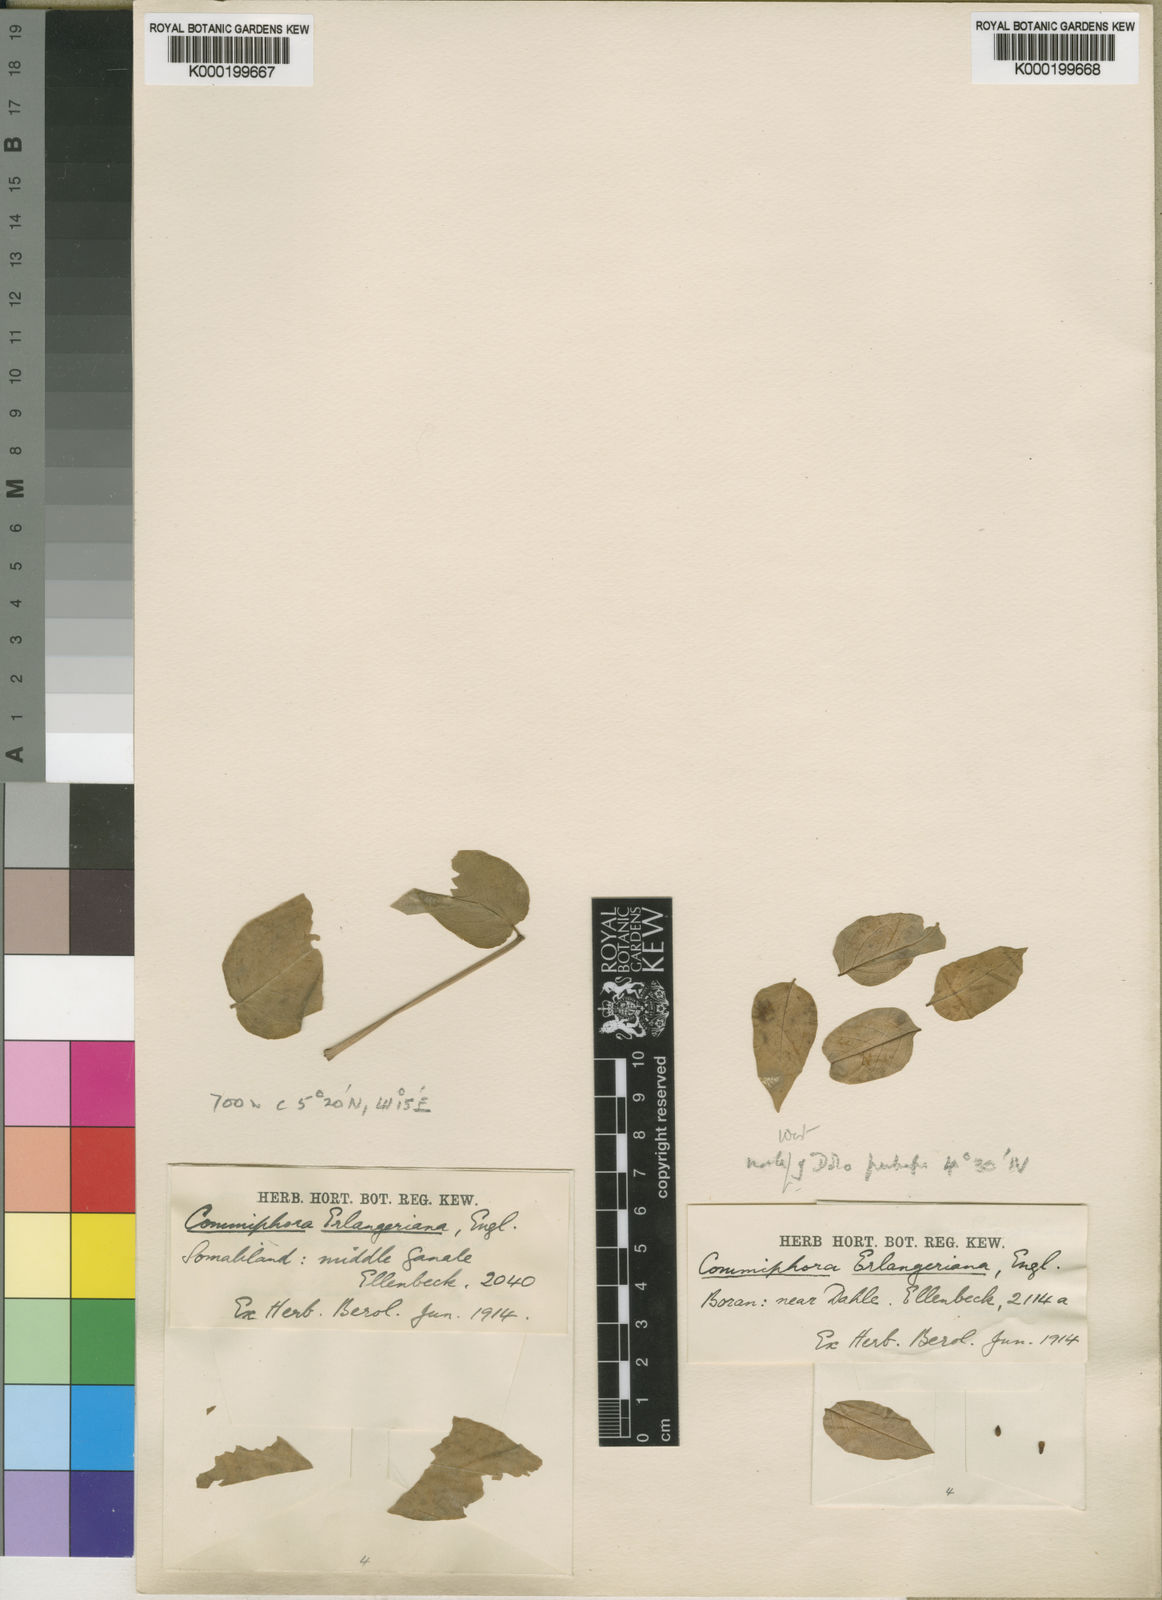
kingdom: Plantae
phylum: Tracheophyta
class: Magnoliopsida
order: Sapindales
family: Burseraceae
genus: Commiphora
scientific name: Commiphora erlangeriana
